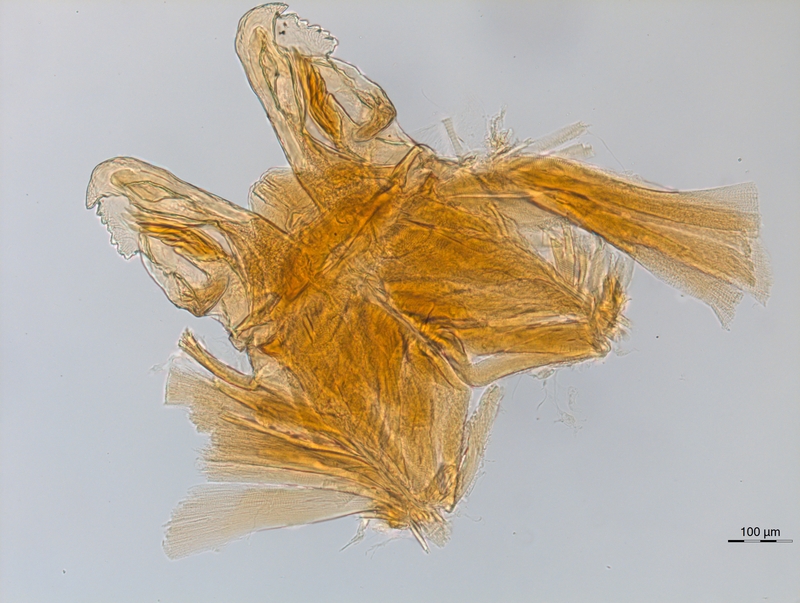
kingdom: Animalia
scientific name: Animalia
